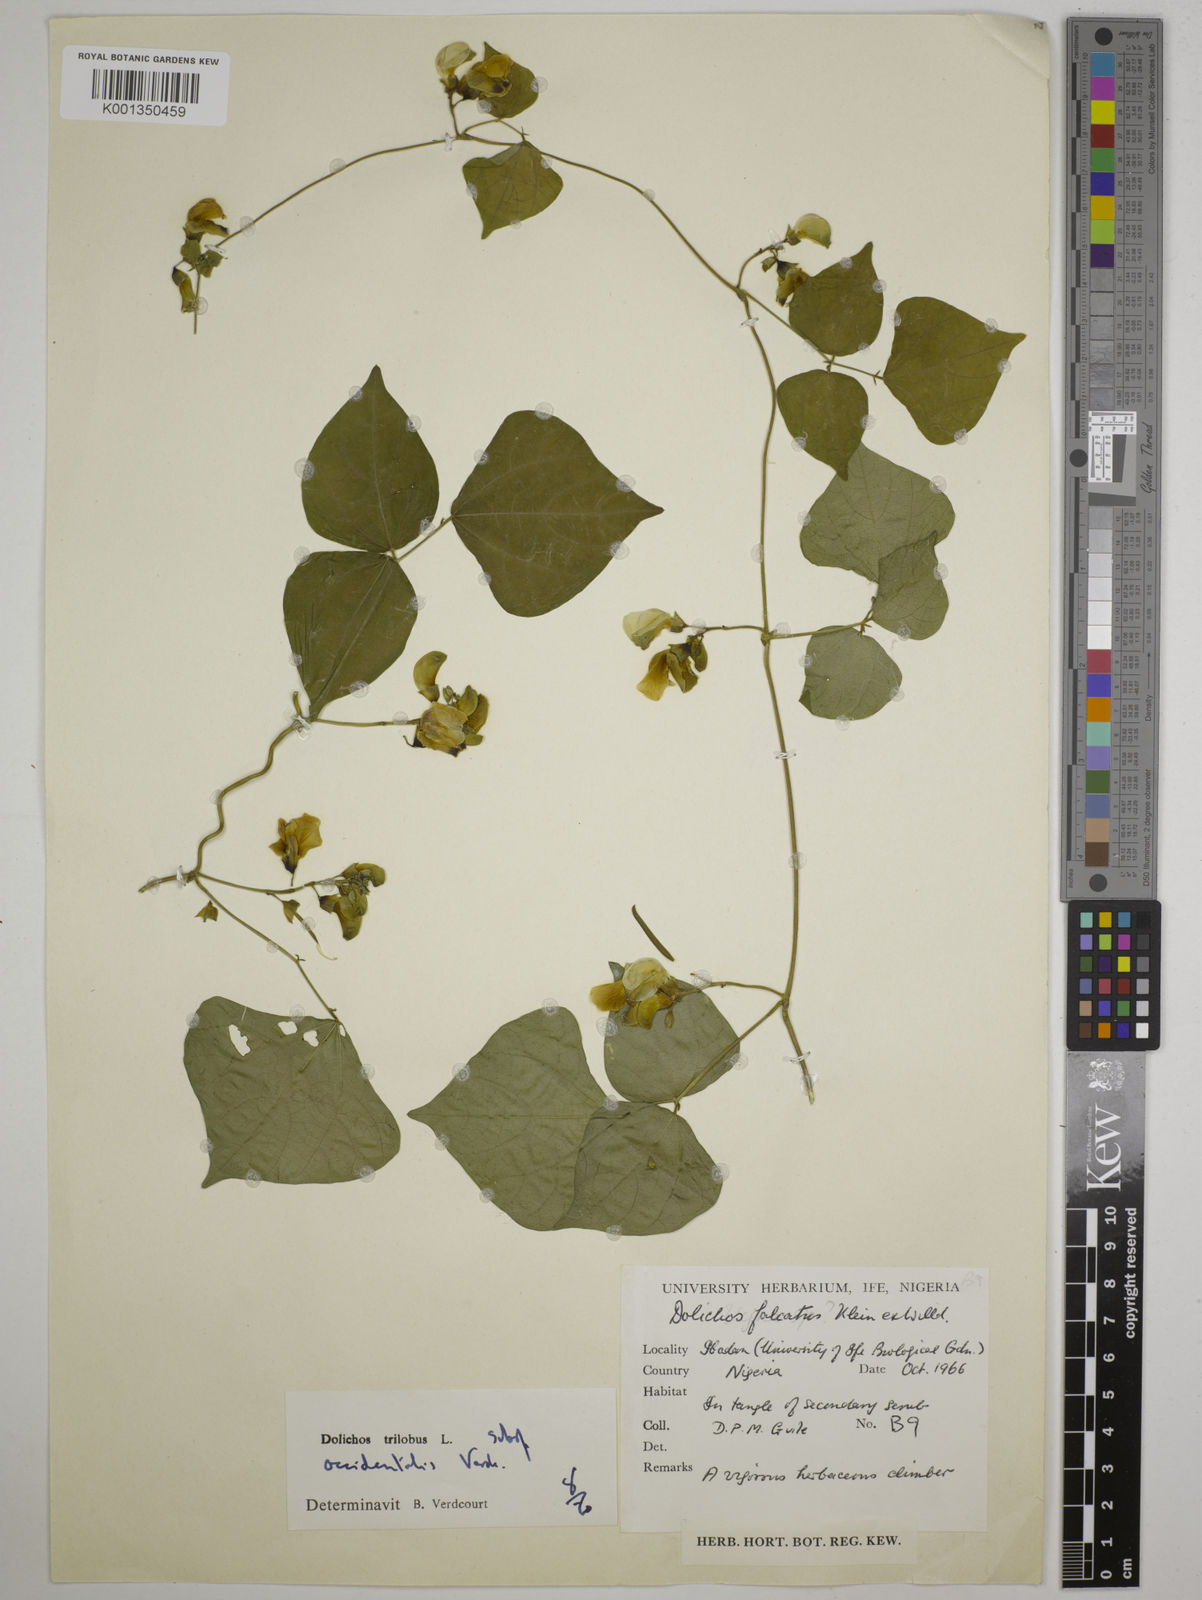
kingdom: Plantae
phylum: Tracheophyta
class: Magnoliopsida
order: Fabales
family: Fabaceae
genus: Dolichos
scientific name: Dolichos
